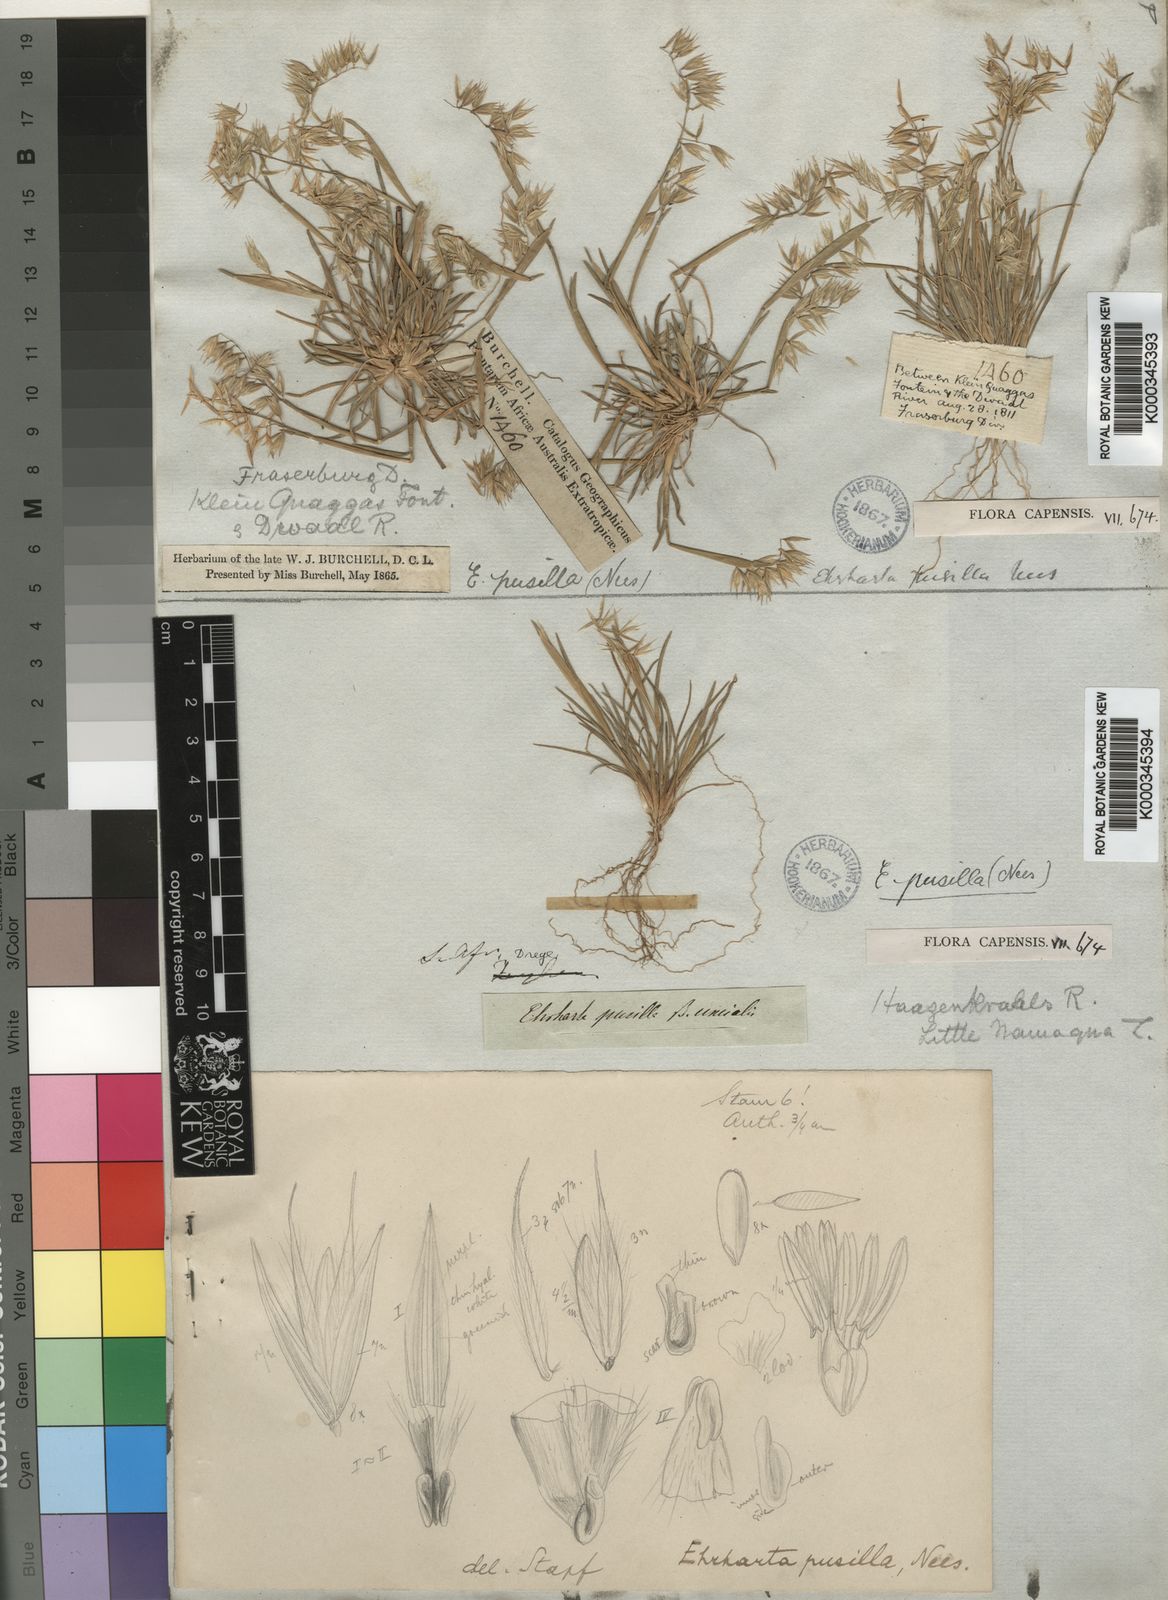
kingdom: Plantae
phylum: Tracheophyta
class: Liliopsida
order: Poales
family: Poaceae
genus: Ehrharta
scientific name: Ehrharta
